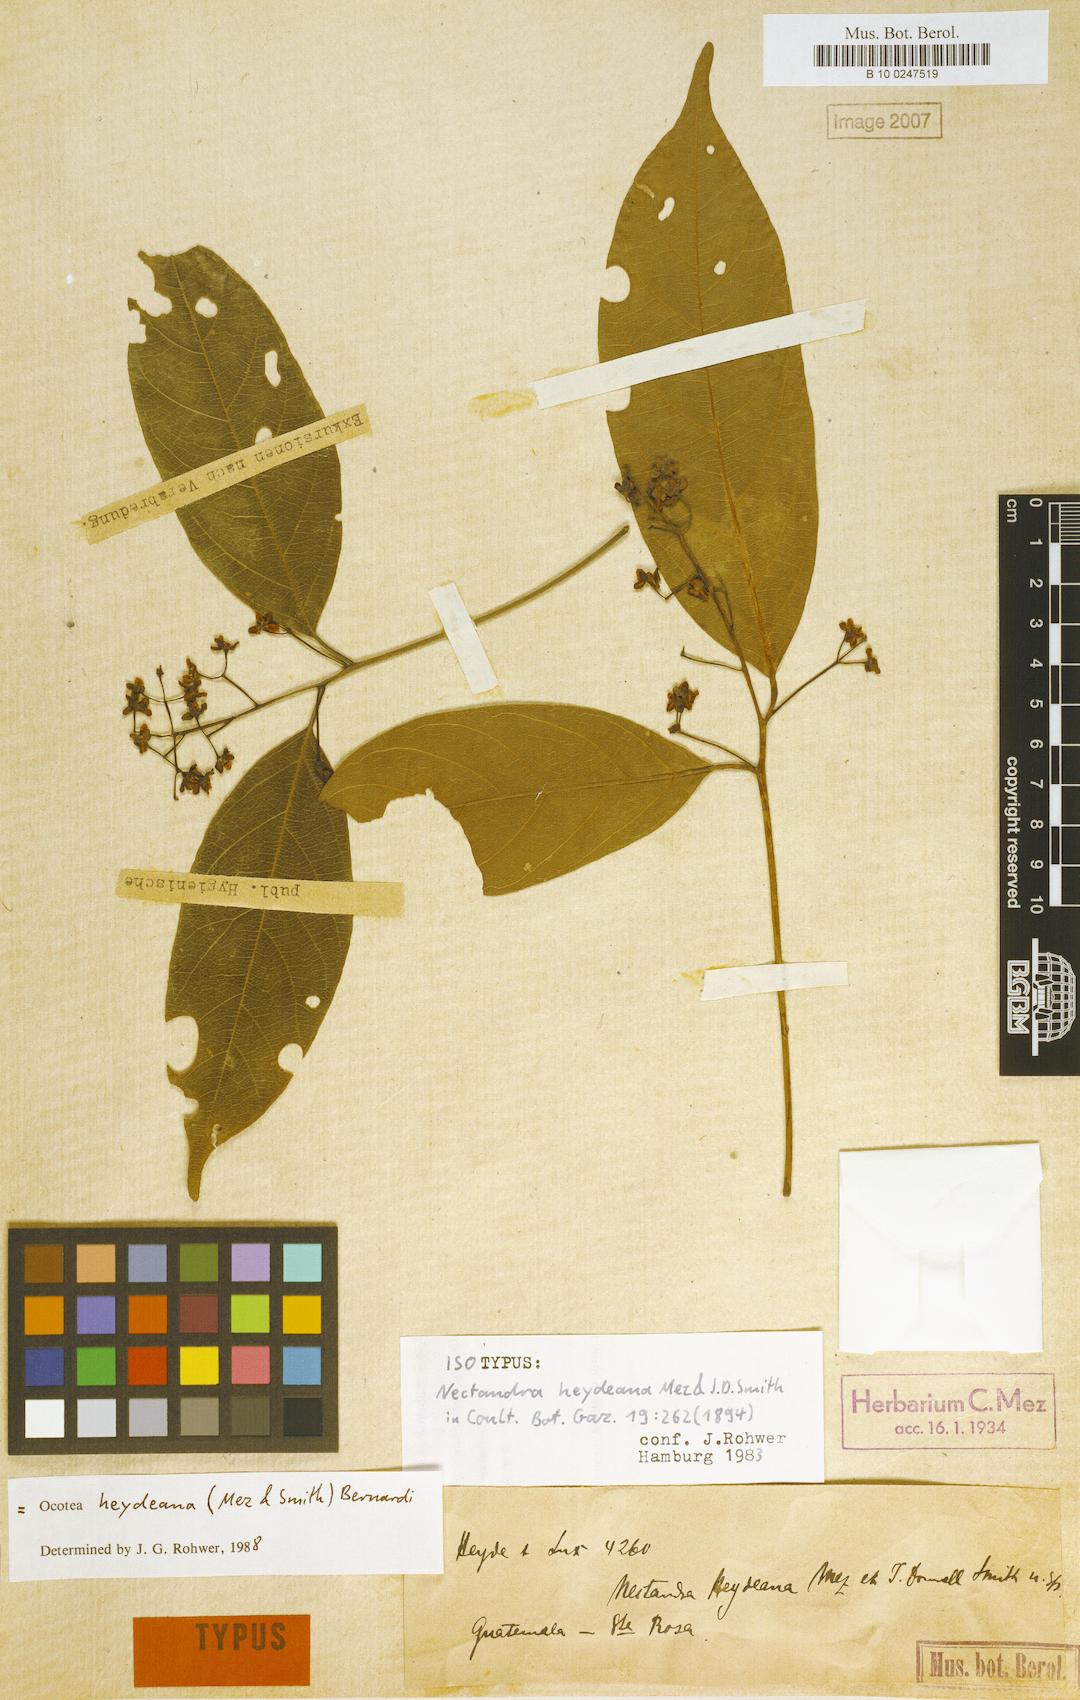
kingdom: Plantae
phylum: Tracheophyta
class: Magnoliopsida
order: Laurales
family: Lauraceae
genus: Ocotea
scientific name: Ocotea heydeana
